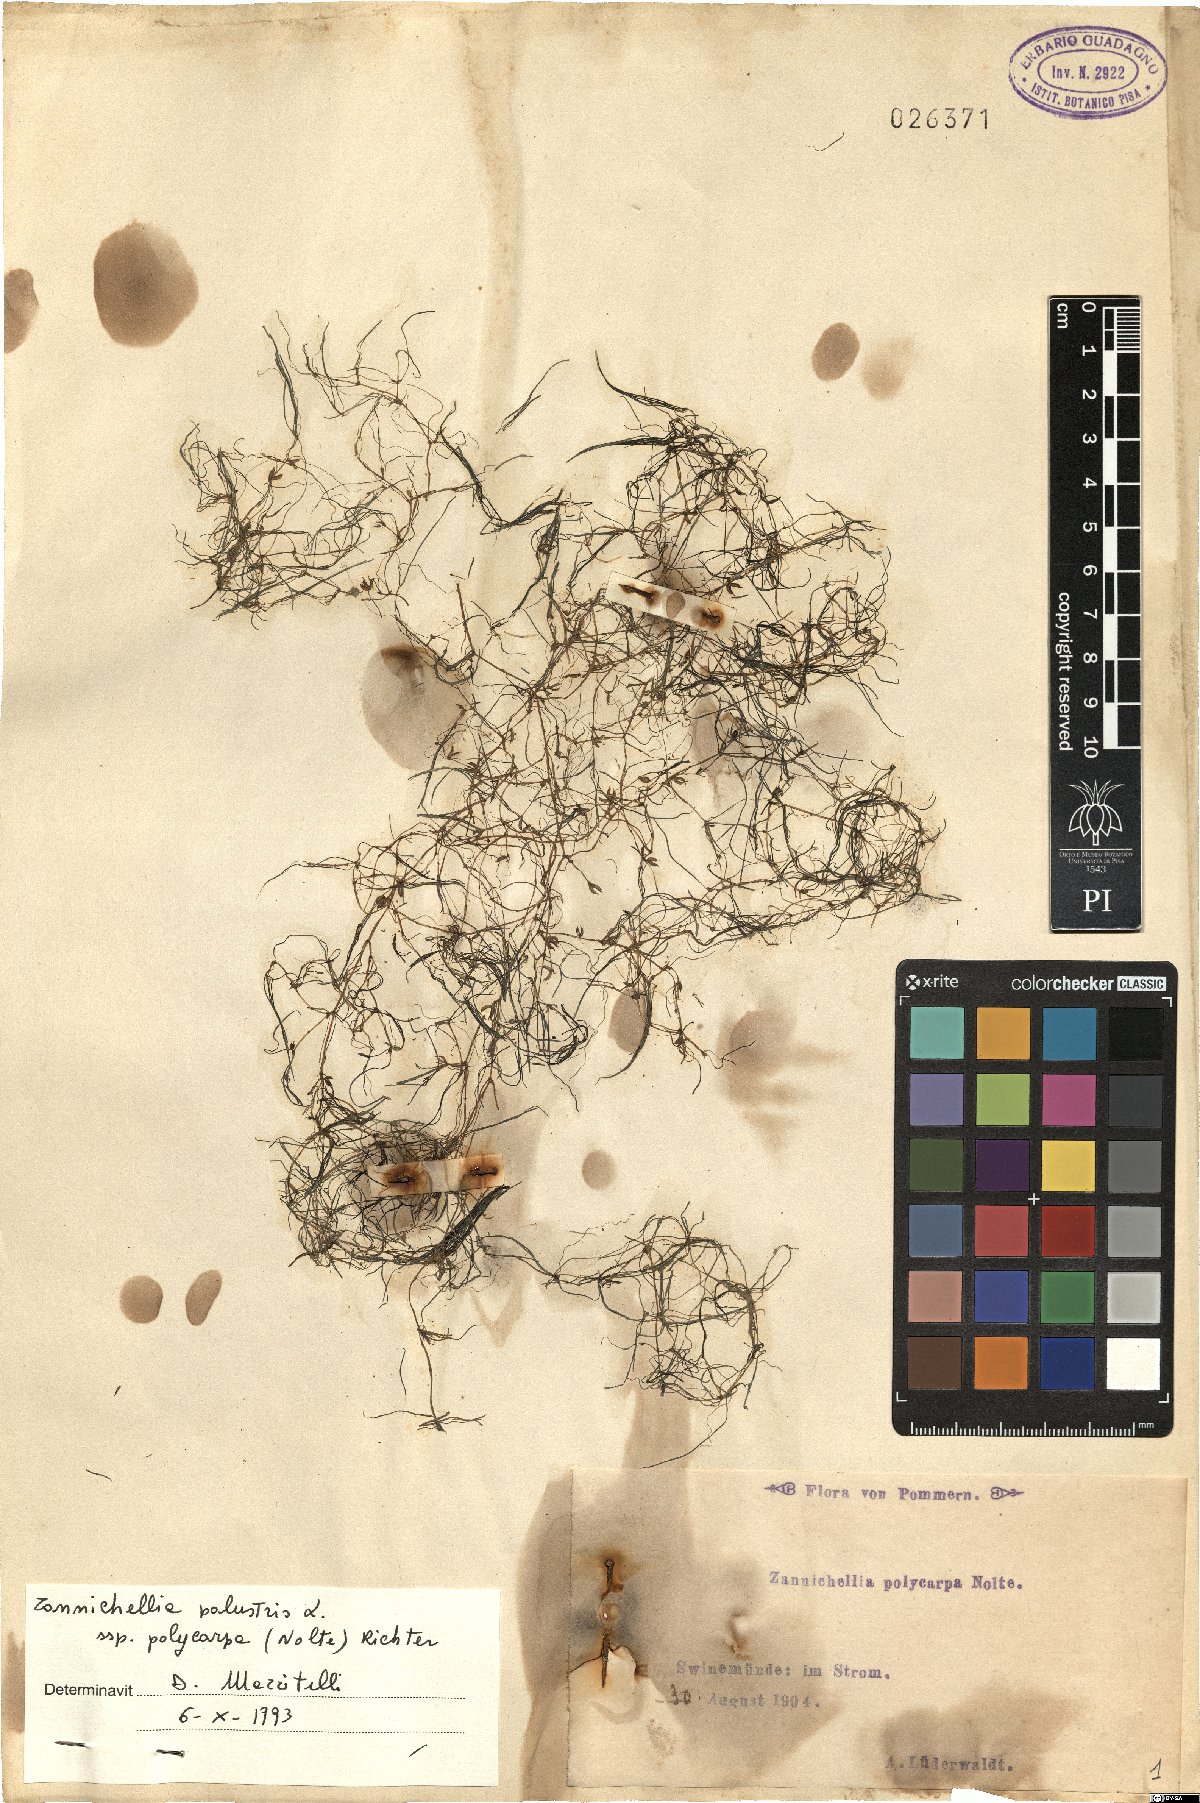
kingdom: Plantae
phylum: Tracheophyta
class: Liliopsida
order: Alismatales
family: Potamogetonaceae
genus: Zannichellia
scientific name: Zannichellia palustris
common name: Horned pondweed
